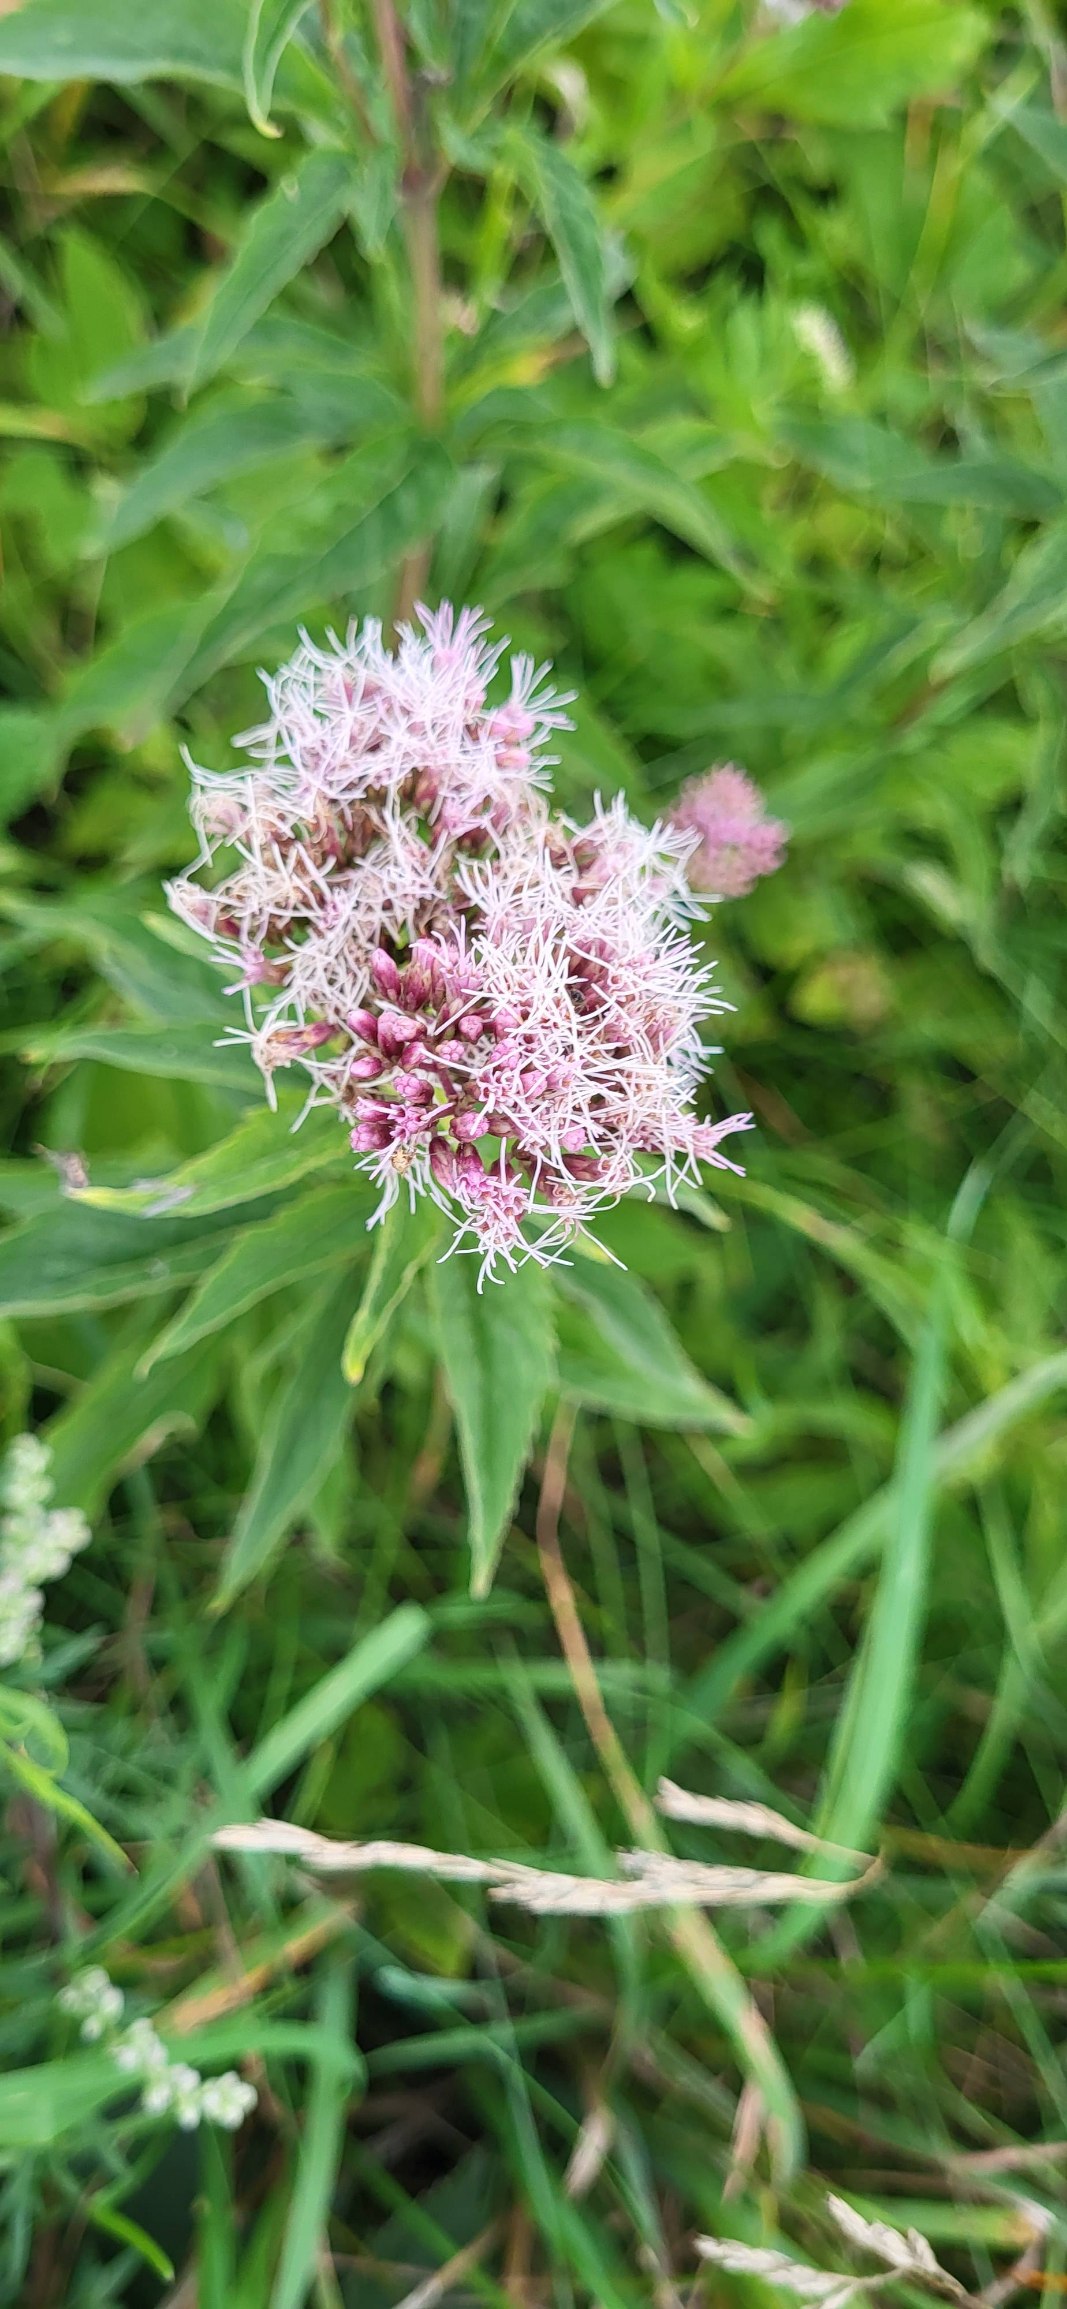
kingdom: Plantae
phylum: Tracheophyta
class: Magnoliopsida
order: Asterales
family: Asteraceae
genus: Eupatorium
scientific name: Eupatorium cannabinum
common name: Hjortetrøst
